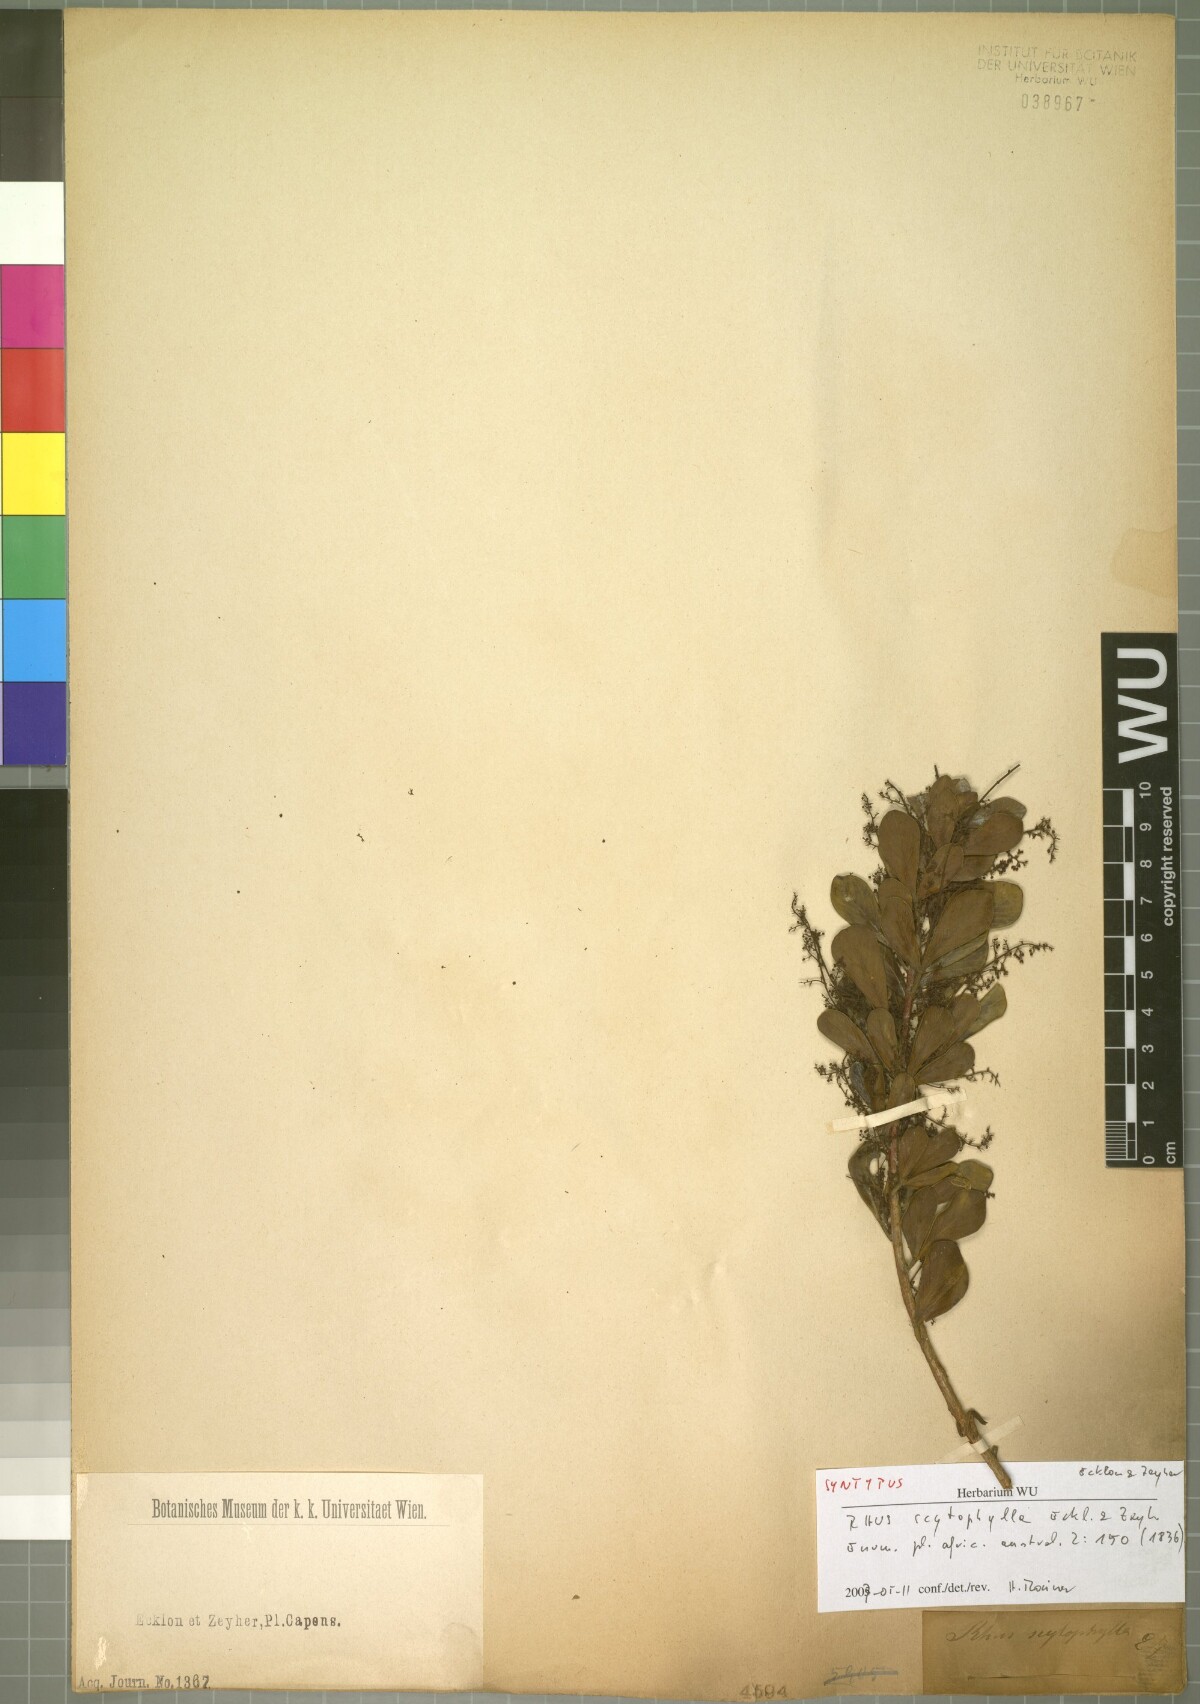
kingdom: Plantae
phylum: Tracheophyta
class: Magnoliopsida
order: Sapindales
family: Anacardiaceae
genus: Searsia
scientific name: Searsia scytophylla
